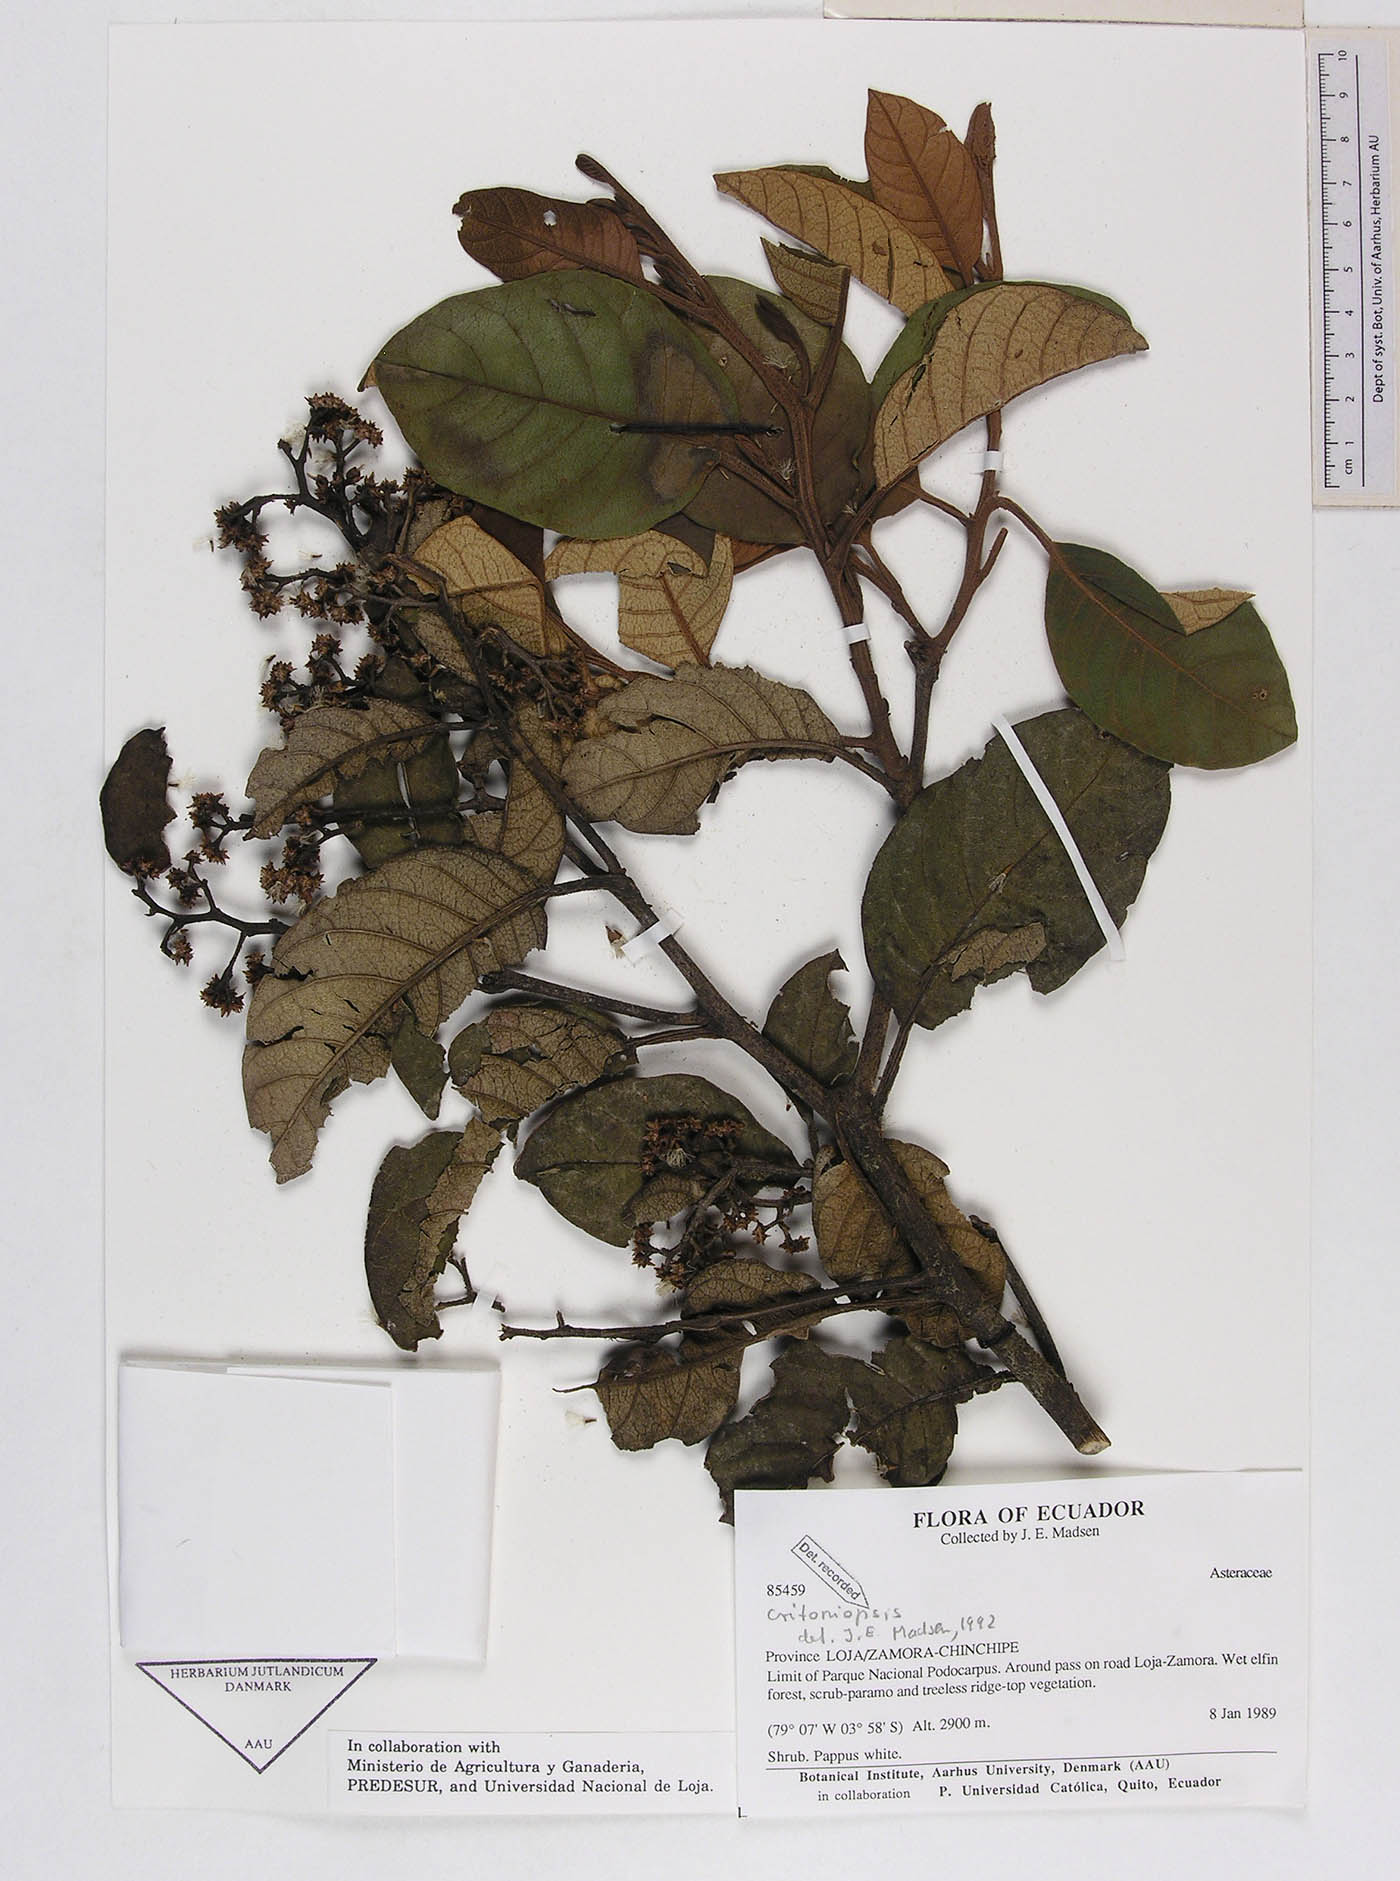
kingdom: Plantae
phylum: Tracheophyta
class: Magnoliopsida
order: Asterales
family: Asteraceae
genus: Critoniopsis
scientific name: Critoniopsis floribunda
